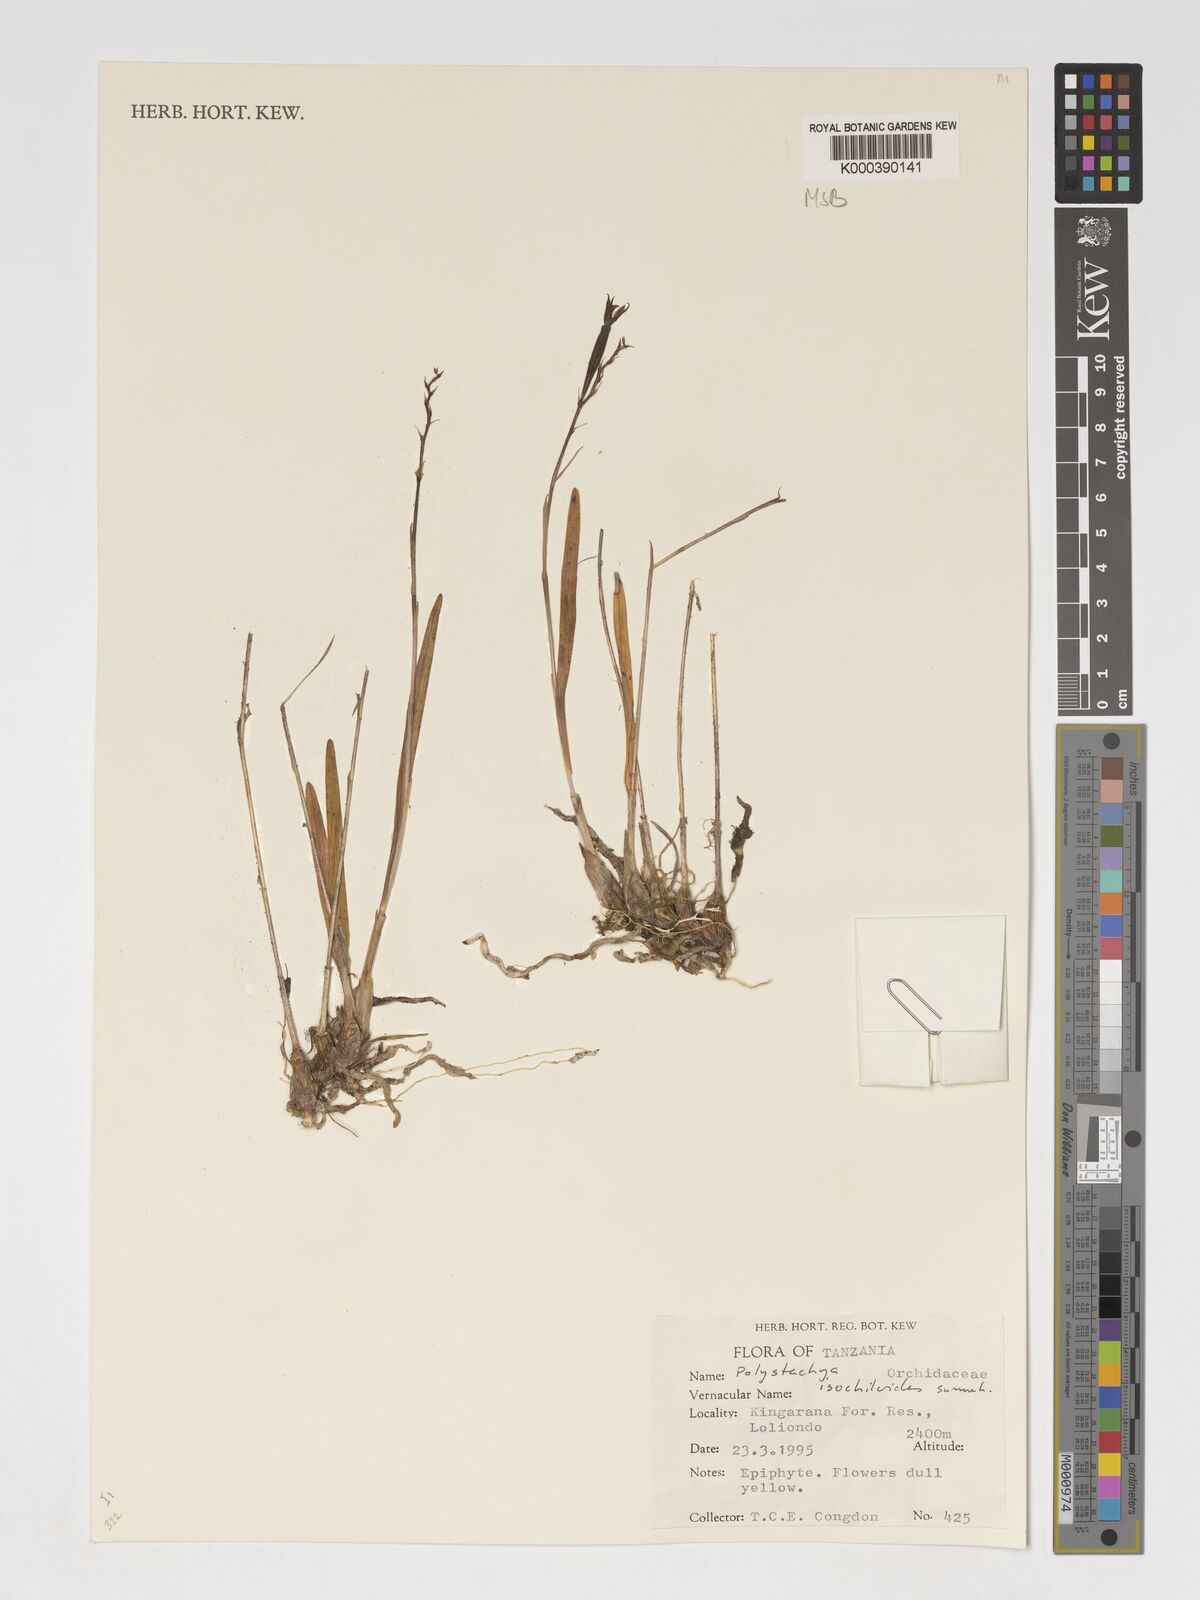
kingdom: Plantae
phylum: Tracheophyta
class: Liliopsida
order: Asparagales
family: Orchidaceae
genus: Polystachya
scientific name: Polystachya isochiloides
